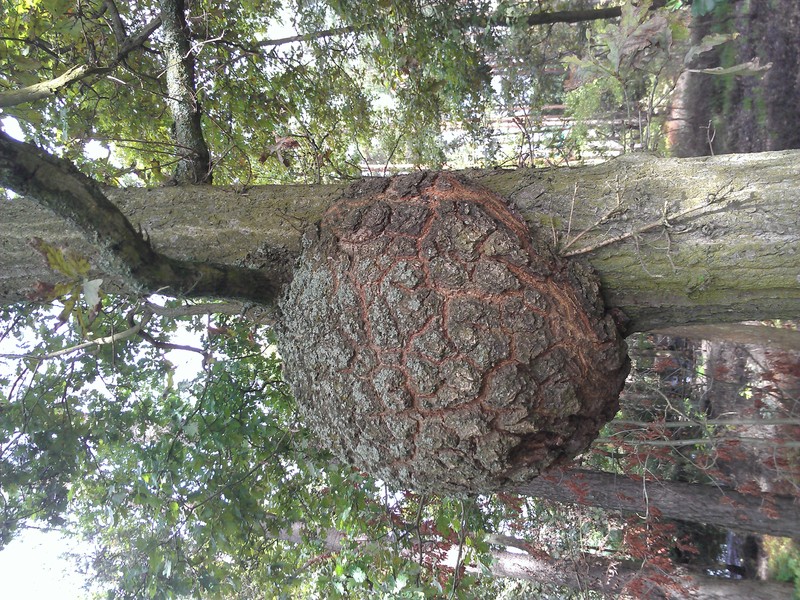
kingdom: Plantae
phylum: Tracheophyta
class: Magnoliopsida
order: Fagales
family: Fagaceae
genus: Quercus
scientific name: Quercus robur
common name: Pedunculate oak
